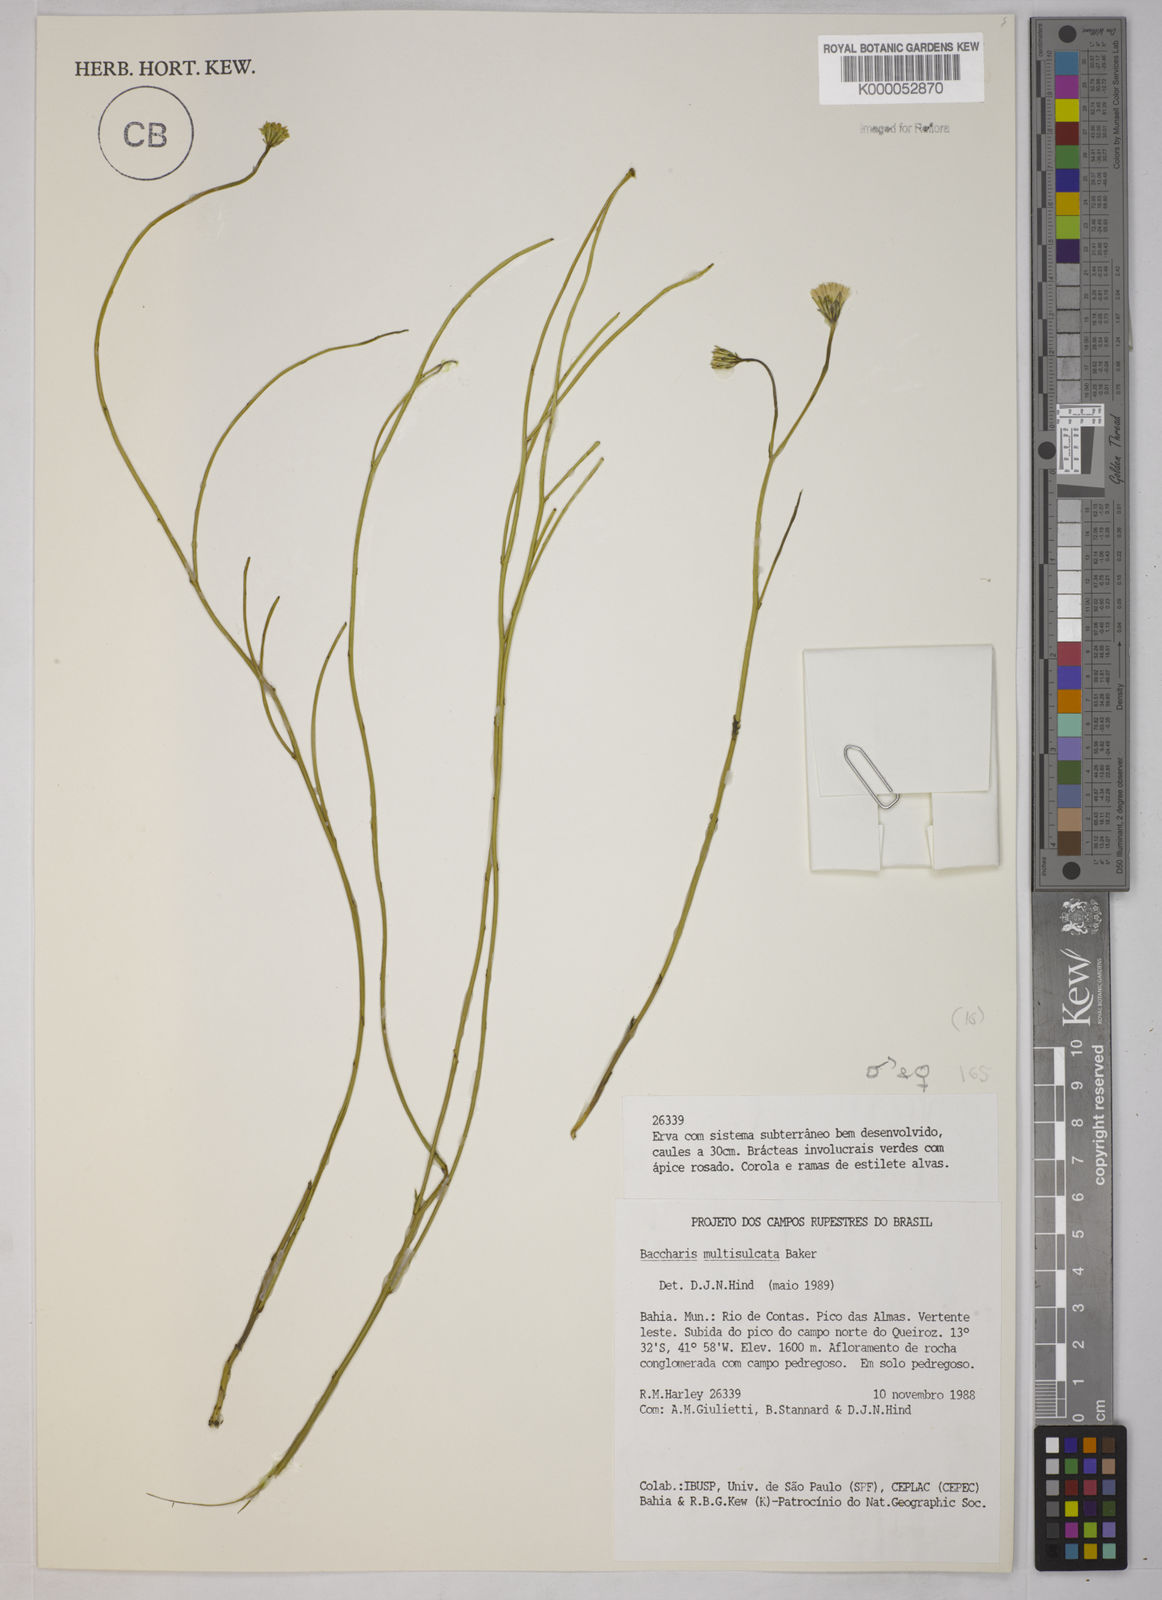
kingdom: Plantae
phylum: Tracheophyta
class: Magnoliopsida
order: Asterales
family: Asteraceae
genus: Baccharis
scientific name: Baccharis orbignyana
